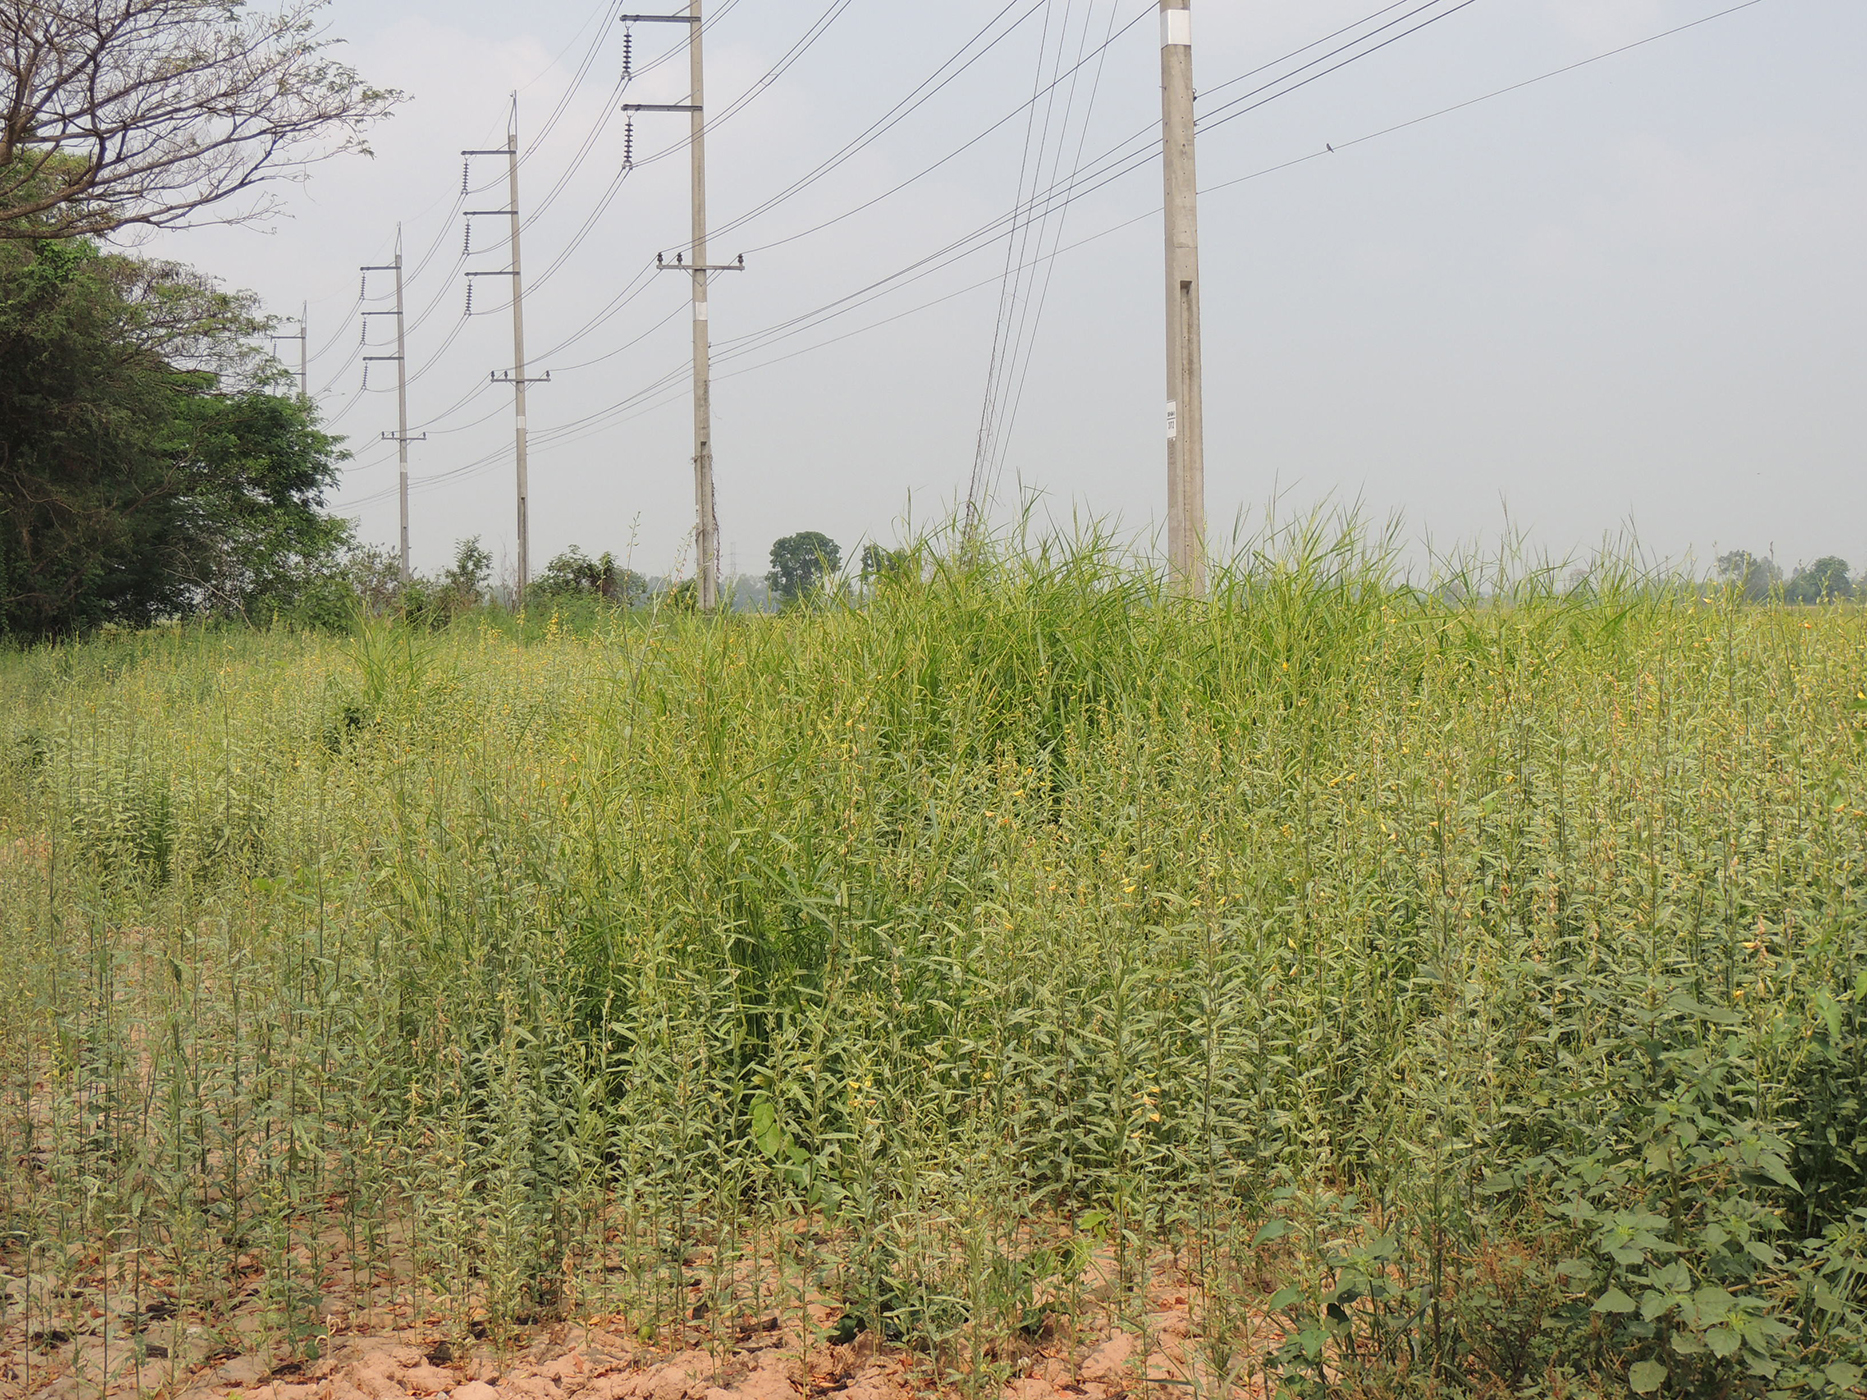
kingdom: Plantae
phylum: Tracheophyta
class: Magnoliopsida
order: Fabales
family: Fabaceae
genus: Crotalaria
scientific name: Crotalaria juncea
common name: Sunn hemp
